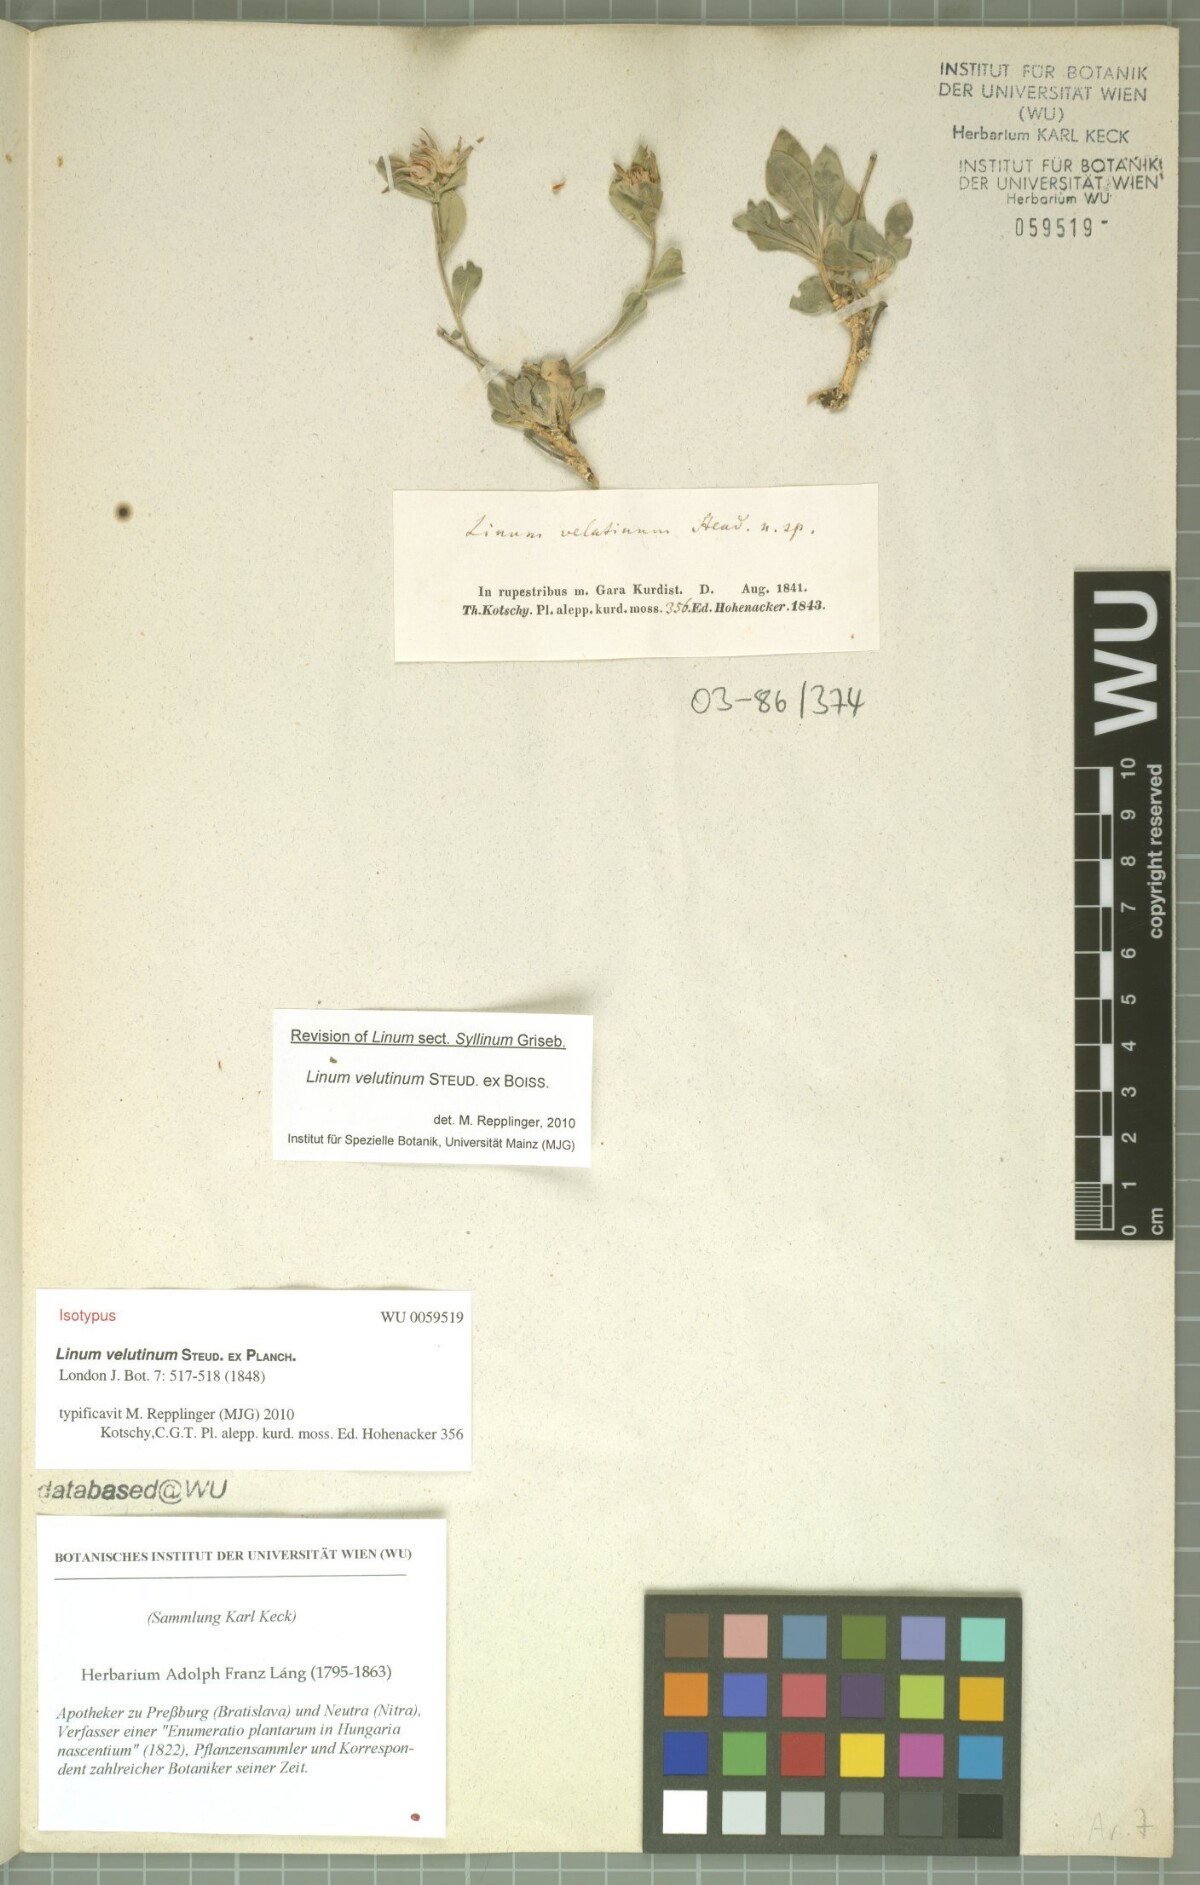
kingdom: Plantae
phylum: Tracheophyta
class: Magnoliopsida
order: Malpighiales
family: Linaceae
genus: Linum
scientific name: Linum velutinum
